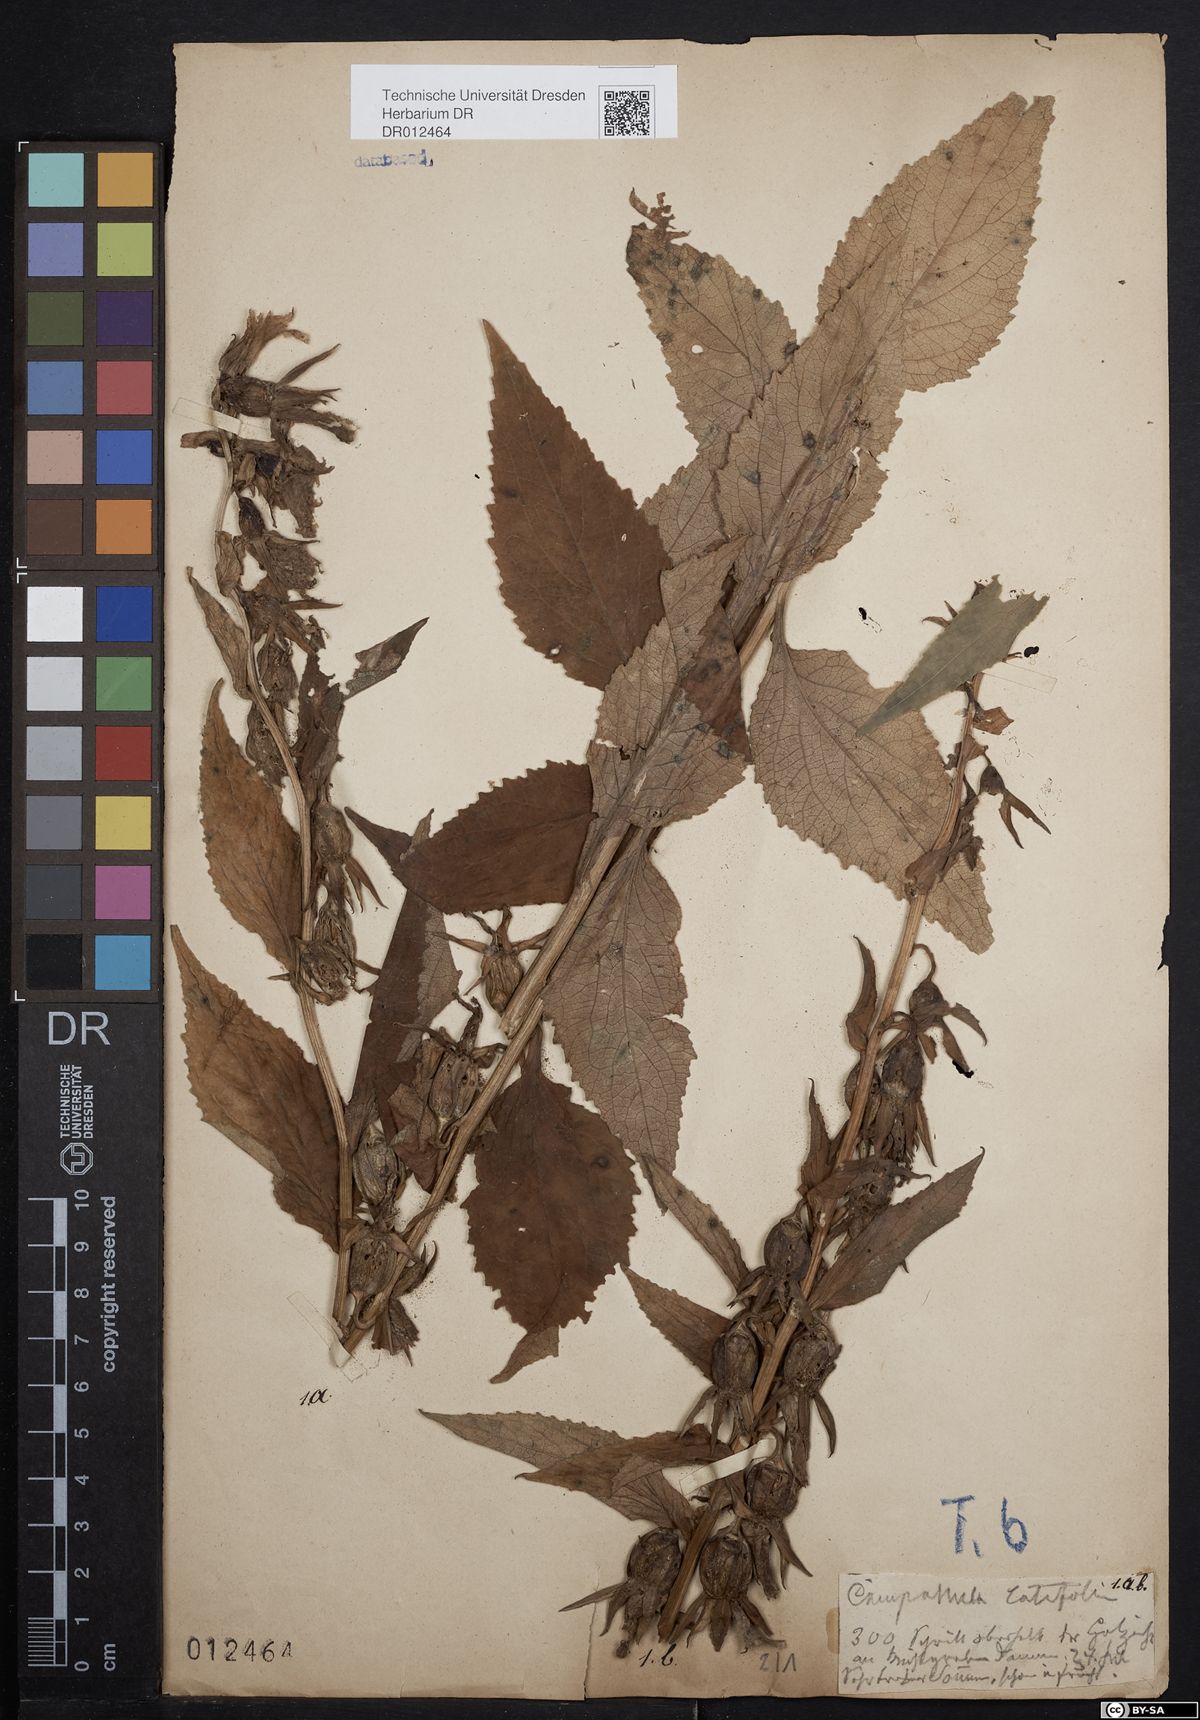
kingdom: Plantae
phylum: Tracheophyta
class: Magnoliopsida
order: Asterales
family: Campanulaceae
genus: Campanula
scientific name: Campanula latifolia
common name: Giant bellflower
